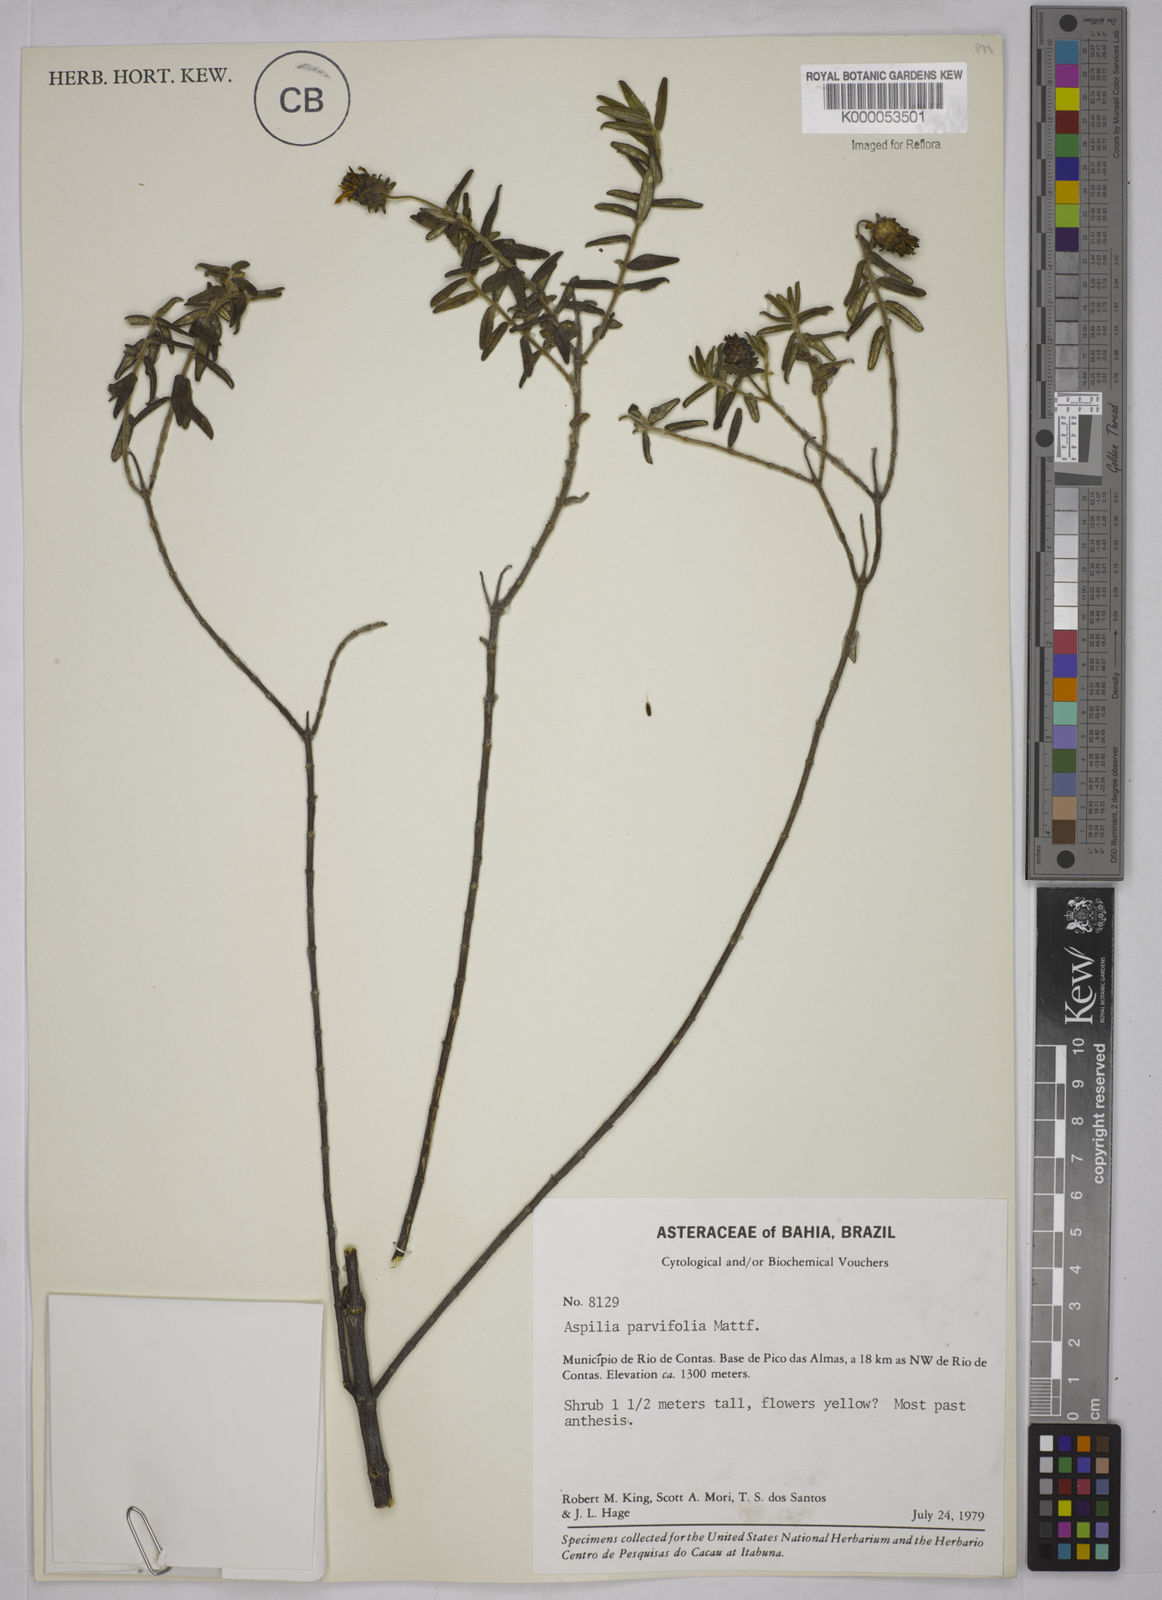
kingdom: Plantae
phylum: Tracheophyta
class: Magnoliopsida
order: Asterales
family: Asteraceae
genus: Aspilia
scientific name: Aspilia foliosa
